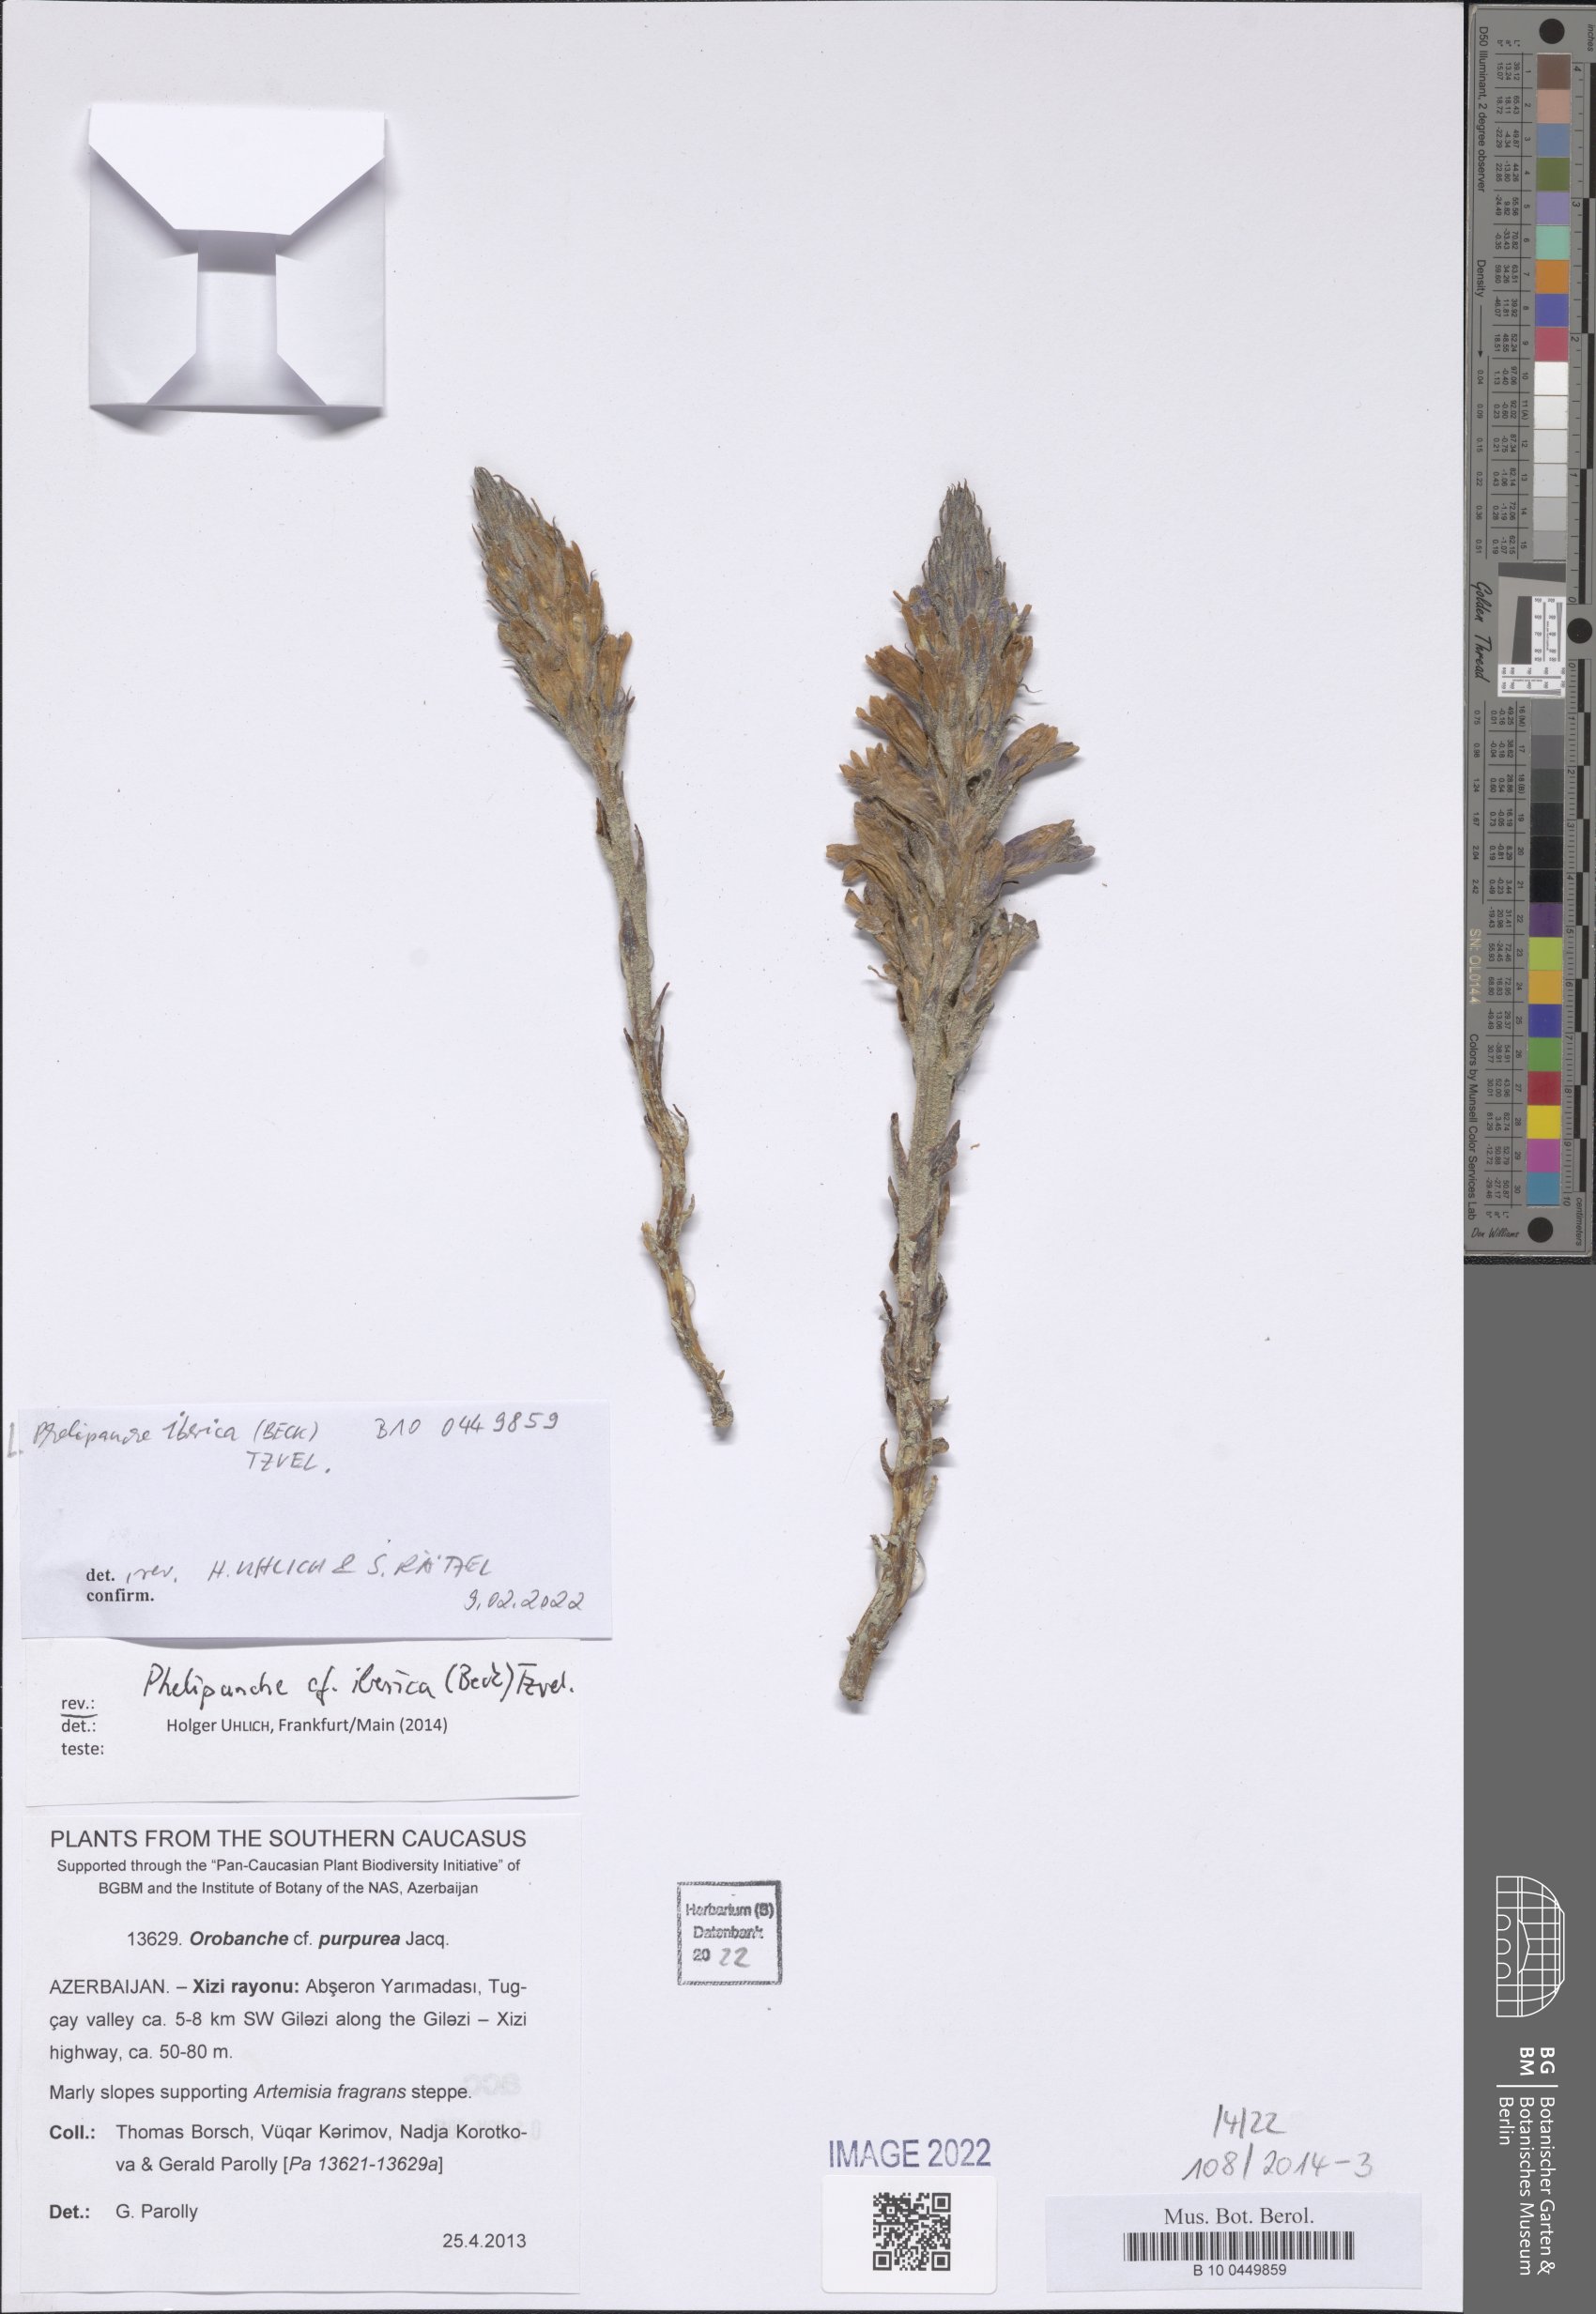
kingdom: Plantae
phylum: Tracheophyta
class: Magnoliopsida
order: Lamiales
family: Orobanchaceae
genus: Phelipanche
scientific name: Phelipanche iberica
